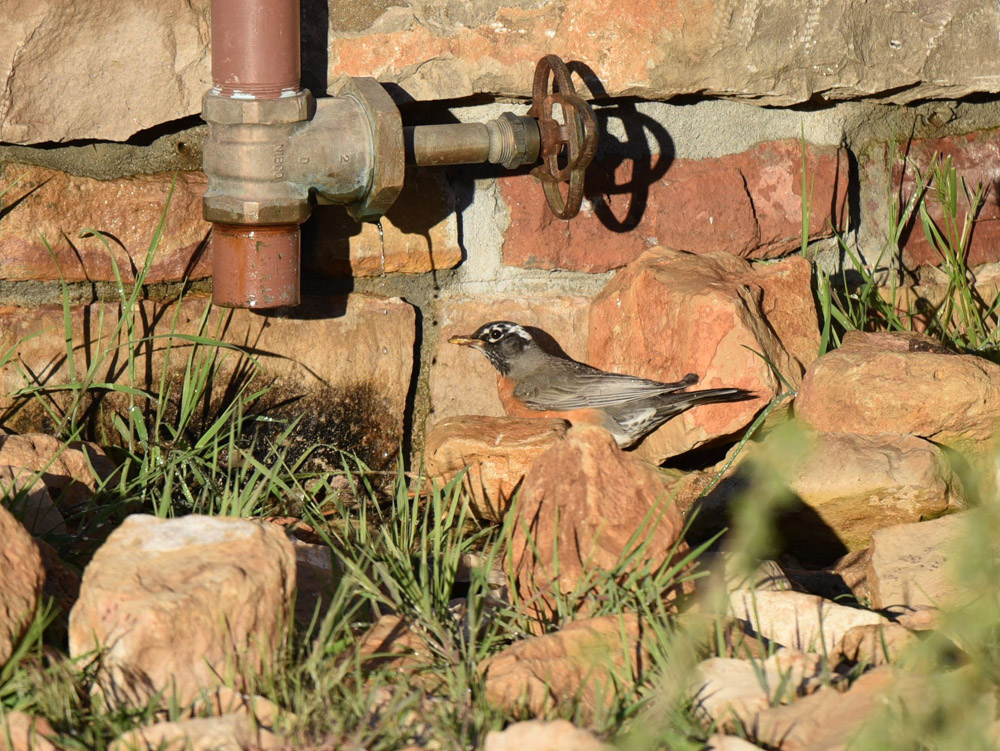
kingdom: Animalia
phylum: Chordata
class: Aves
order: Passeriformes
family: Turdidae
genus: Turdus
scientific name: Turdus migratorius
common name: American robin
